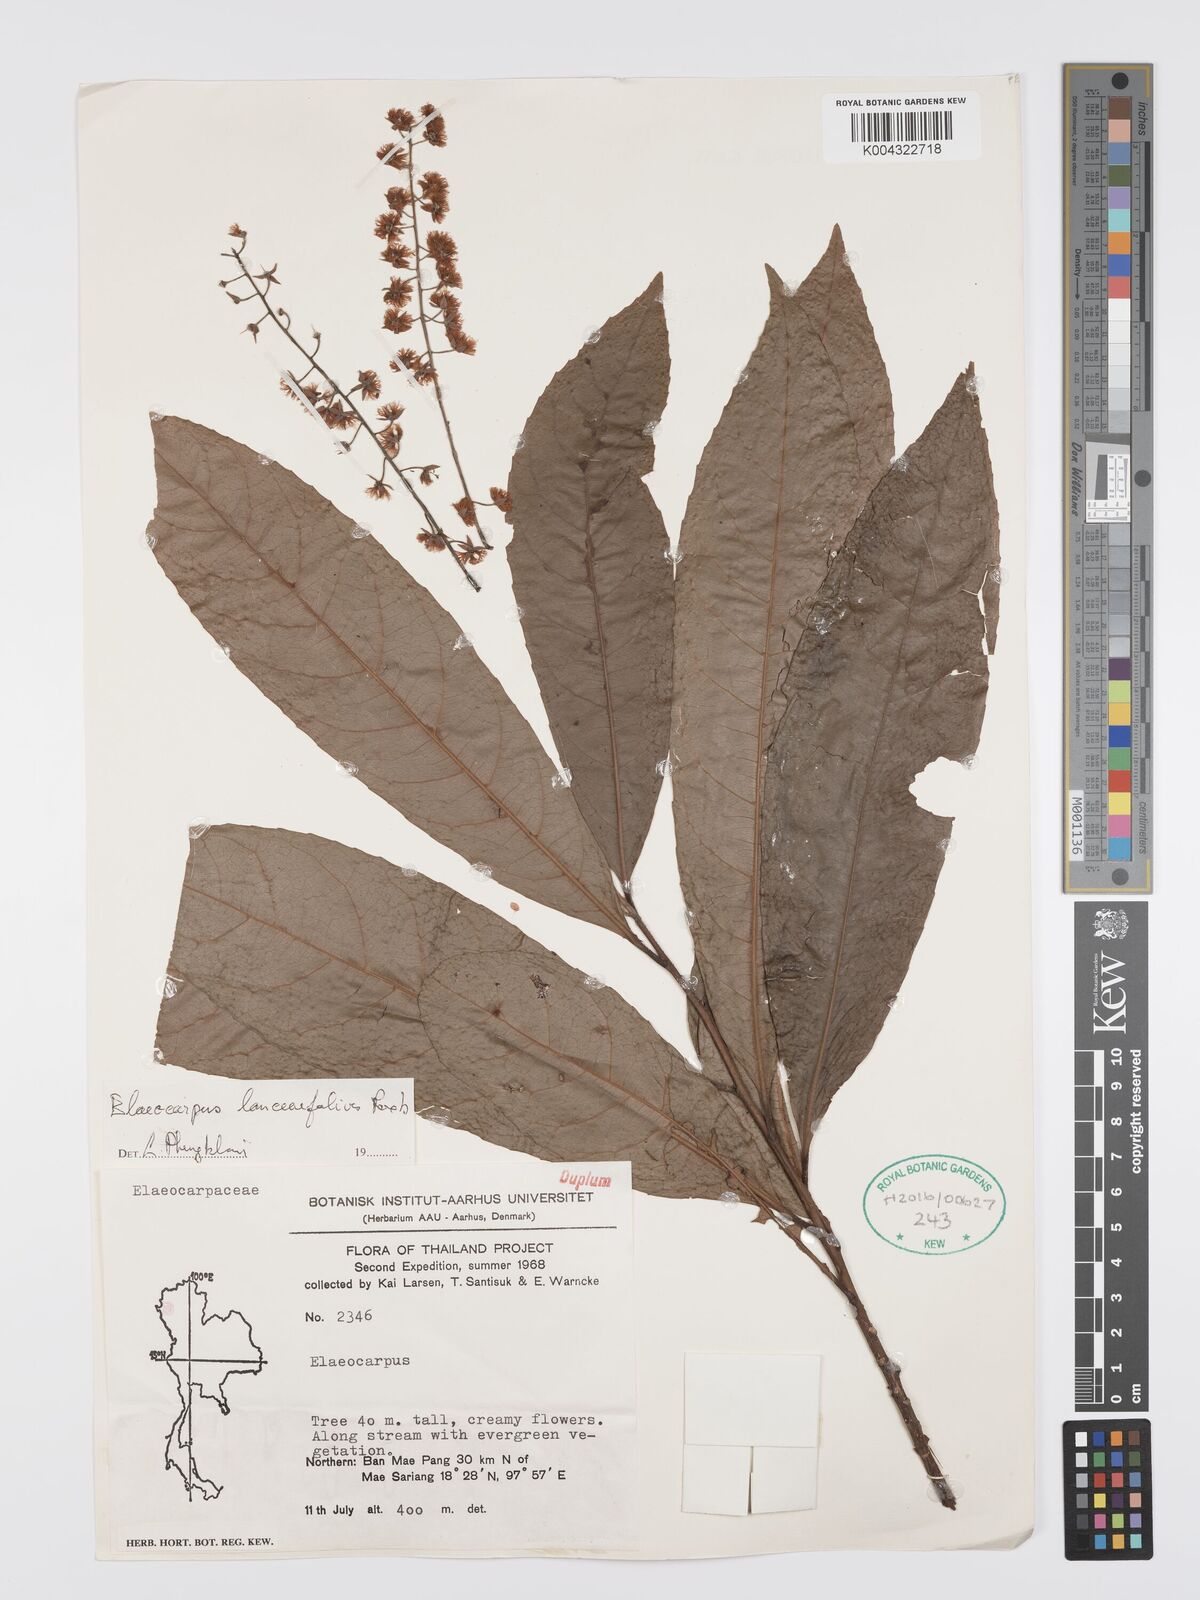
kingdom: Plantae
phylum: Tracheophyta
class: Magnoliopsida
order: Oxalidales
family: Elaeocarpaceae
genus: Elaeocarpus
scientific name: Elaeocarpus lanceifolius
